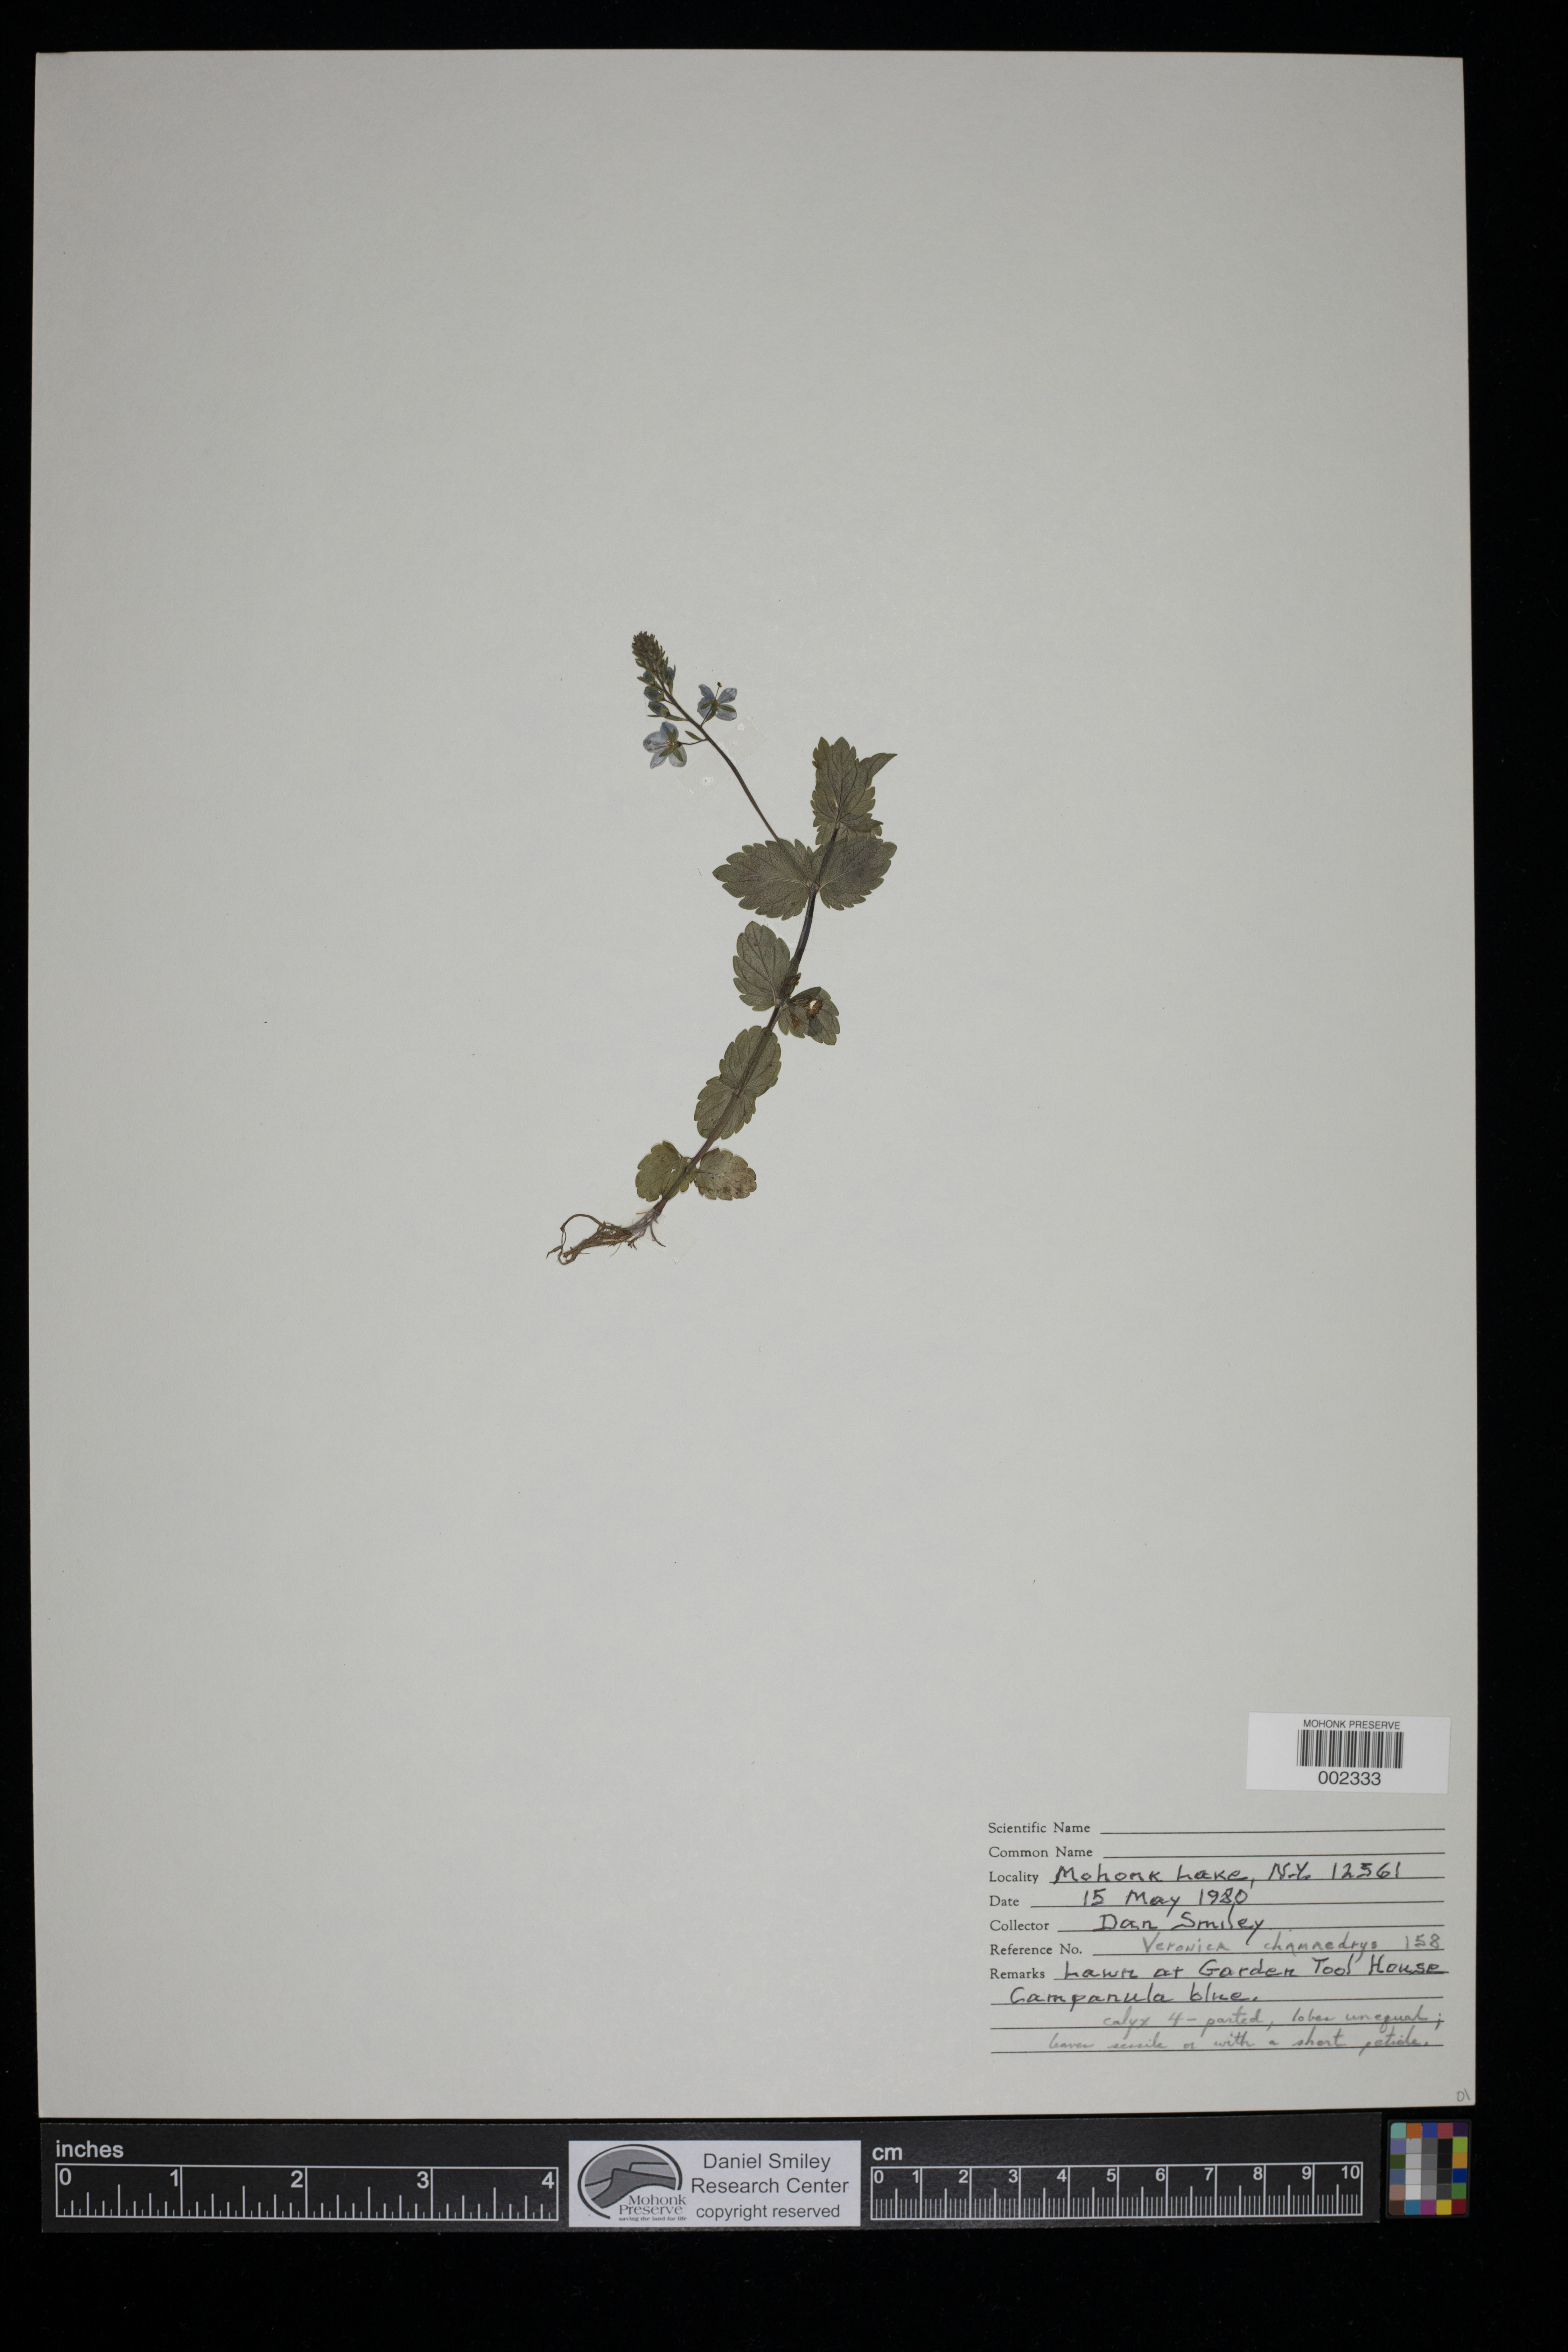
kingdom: Plantae
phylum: Tracheophyta
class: Magnoliopsida
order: Lamiales
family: Plantaginaceae
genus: Veronica
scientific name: Veronica chamaedrys
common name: Germander speedwell
